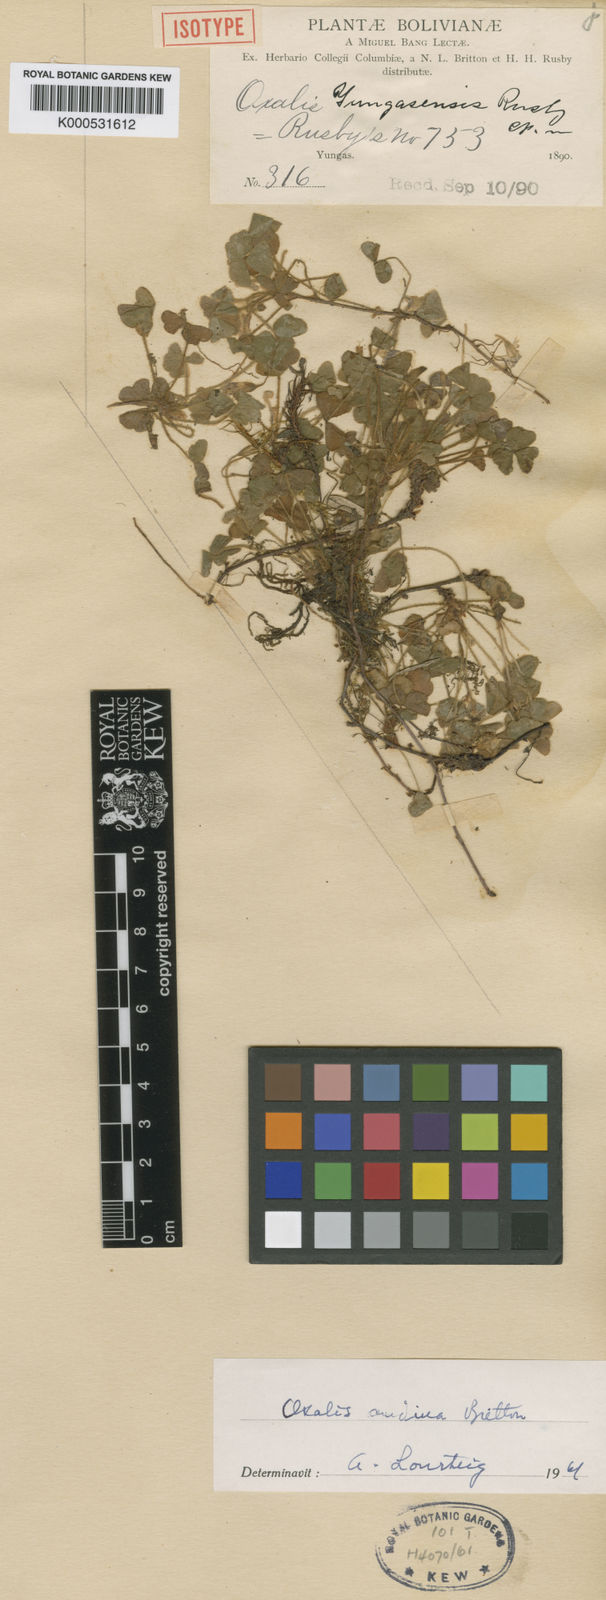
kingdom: Plantae
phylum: Tracheophyta
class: Magnoliopsida
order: Oxalidales
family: Oxalidaceae
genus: Oxalis
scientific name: Oxalis andina
